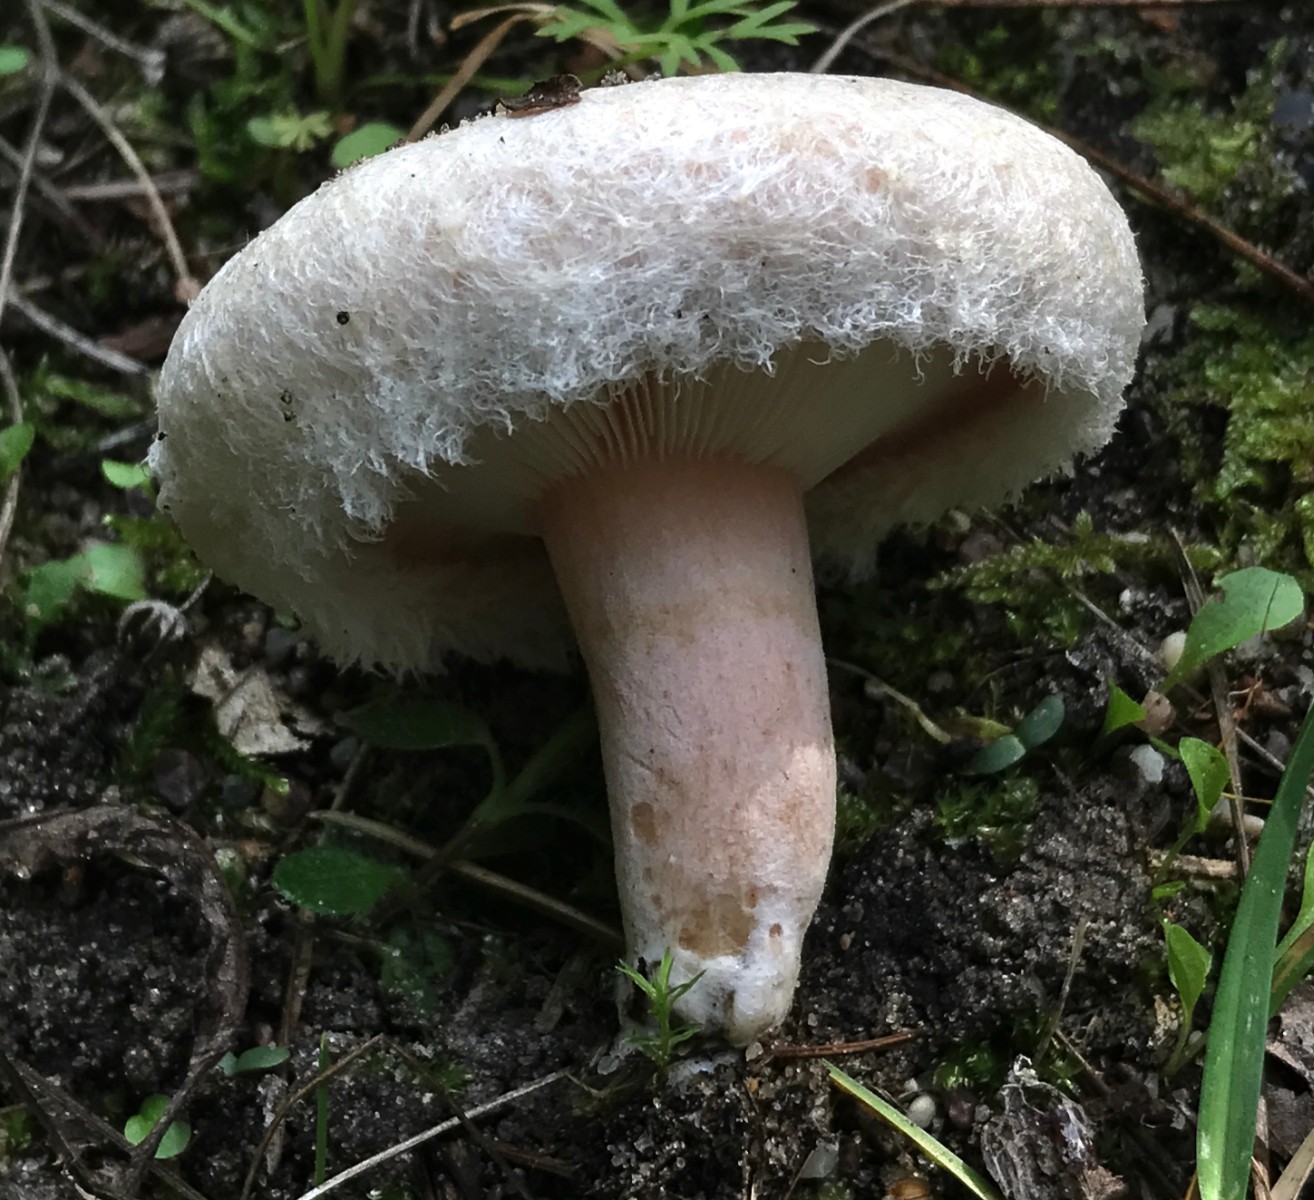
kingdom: Fungi
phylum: Basidiomycota
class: Agaricomycetes
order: Russulales
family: Russulaceae
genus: Lactarius
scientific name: Lactarius pubescens
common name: dunet mælkehat
